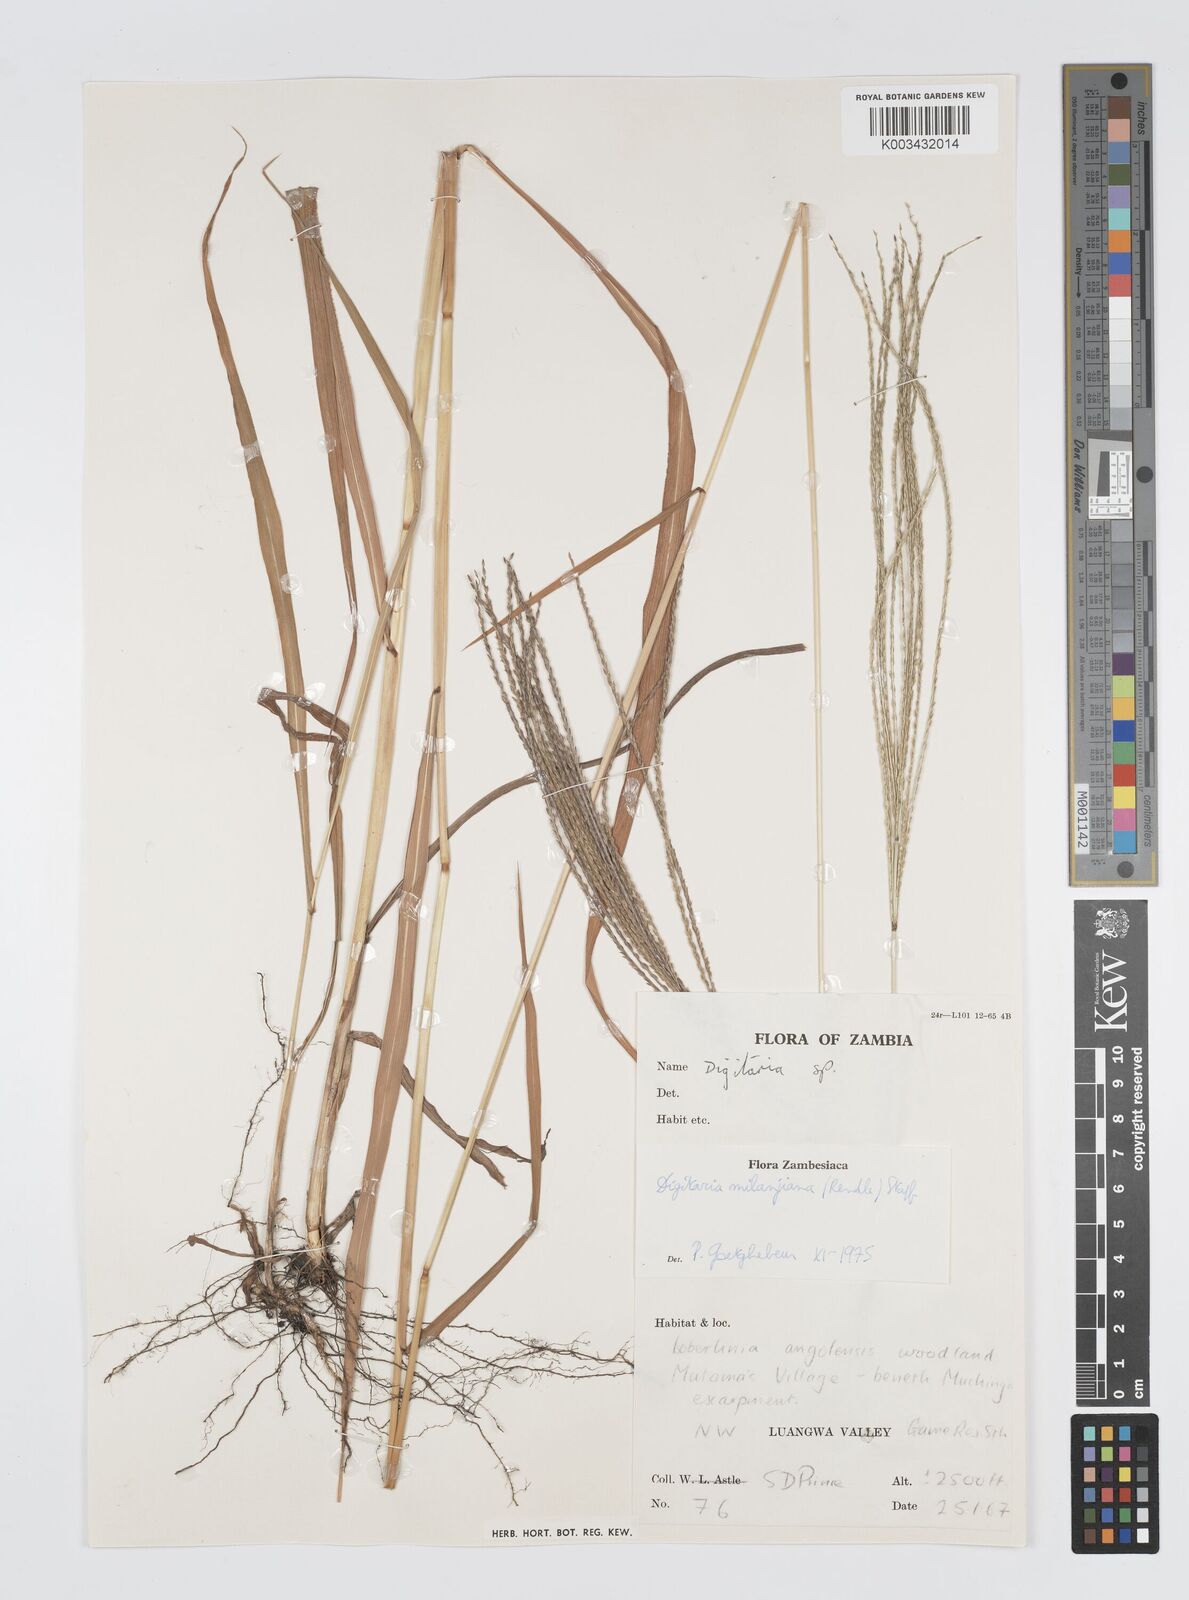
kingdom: Plantae
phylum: Tracheophyta
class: Liliopsida
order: Poales
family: Poaceae
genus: Digitaria
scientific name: Digitaria milanjiana
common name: Madagascar crabgrass
